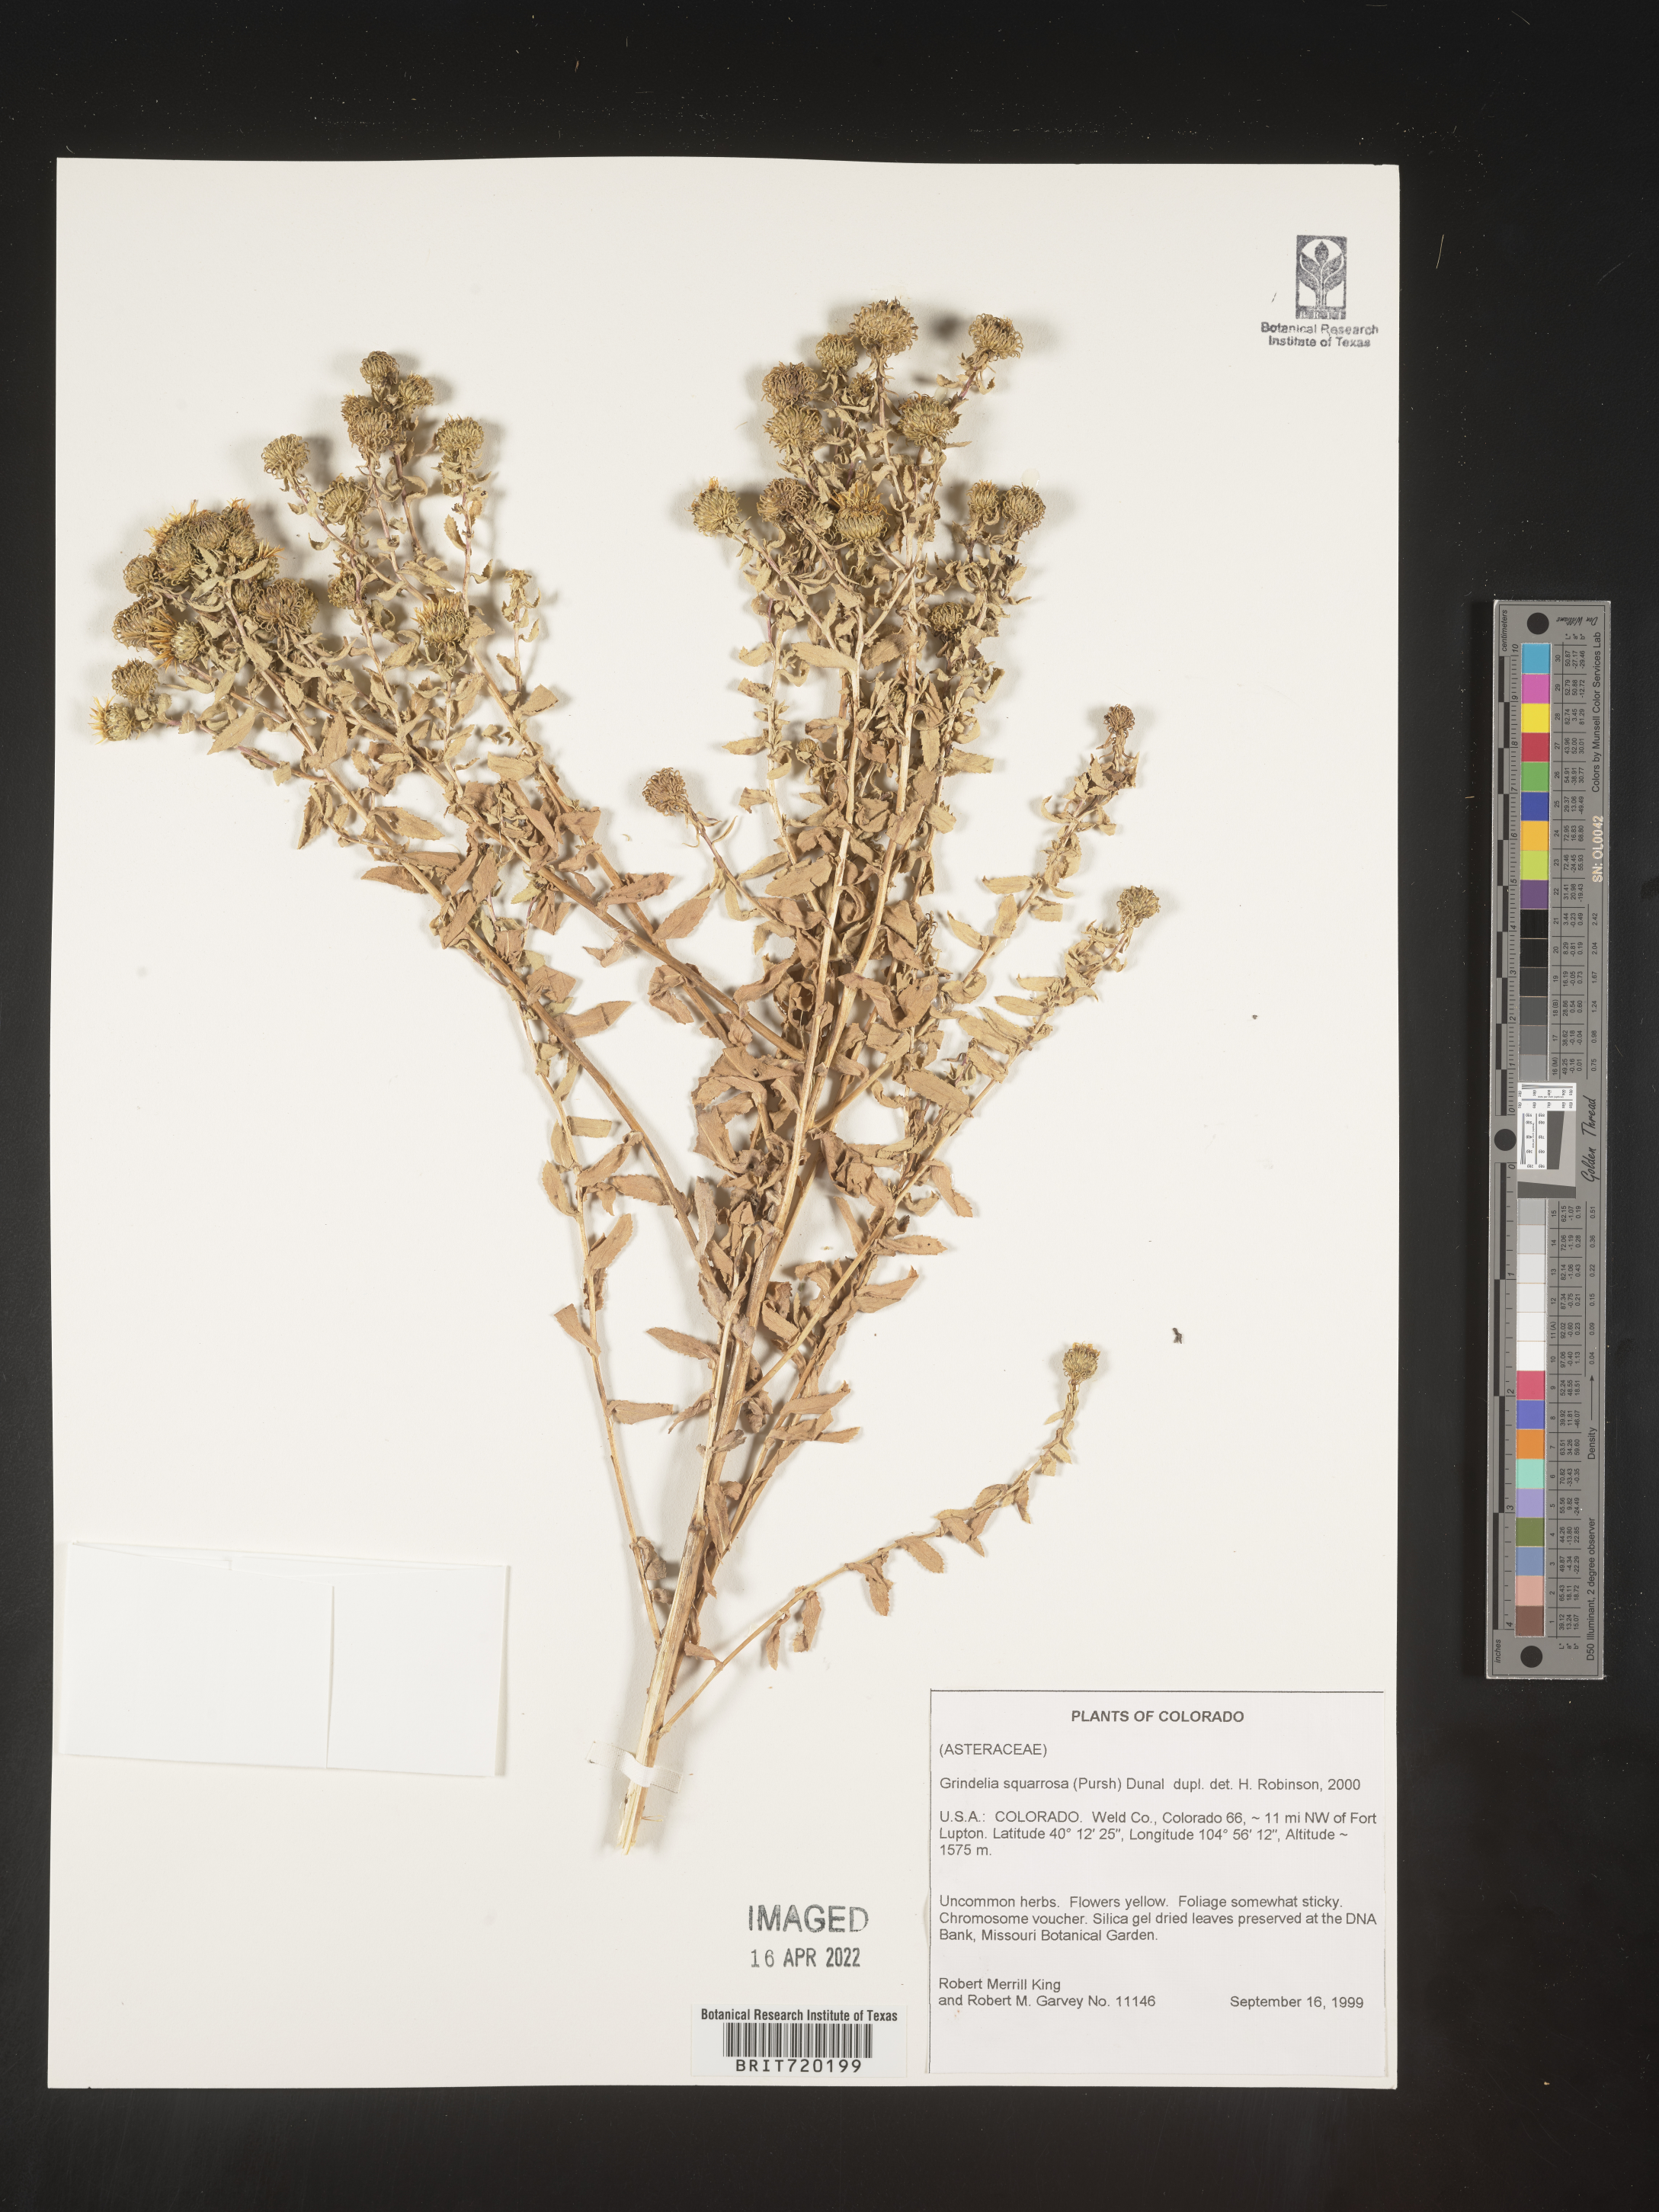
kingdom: Plantae
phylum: Tracheophyta
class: Magnoliopsida
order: Asterales
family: Asteraceae
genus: Grindelia
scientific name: Grindelia hirsutula
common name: Hairy gumweed
